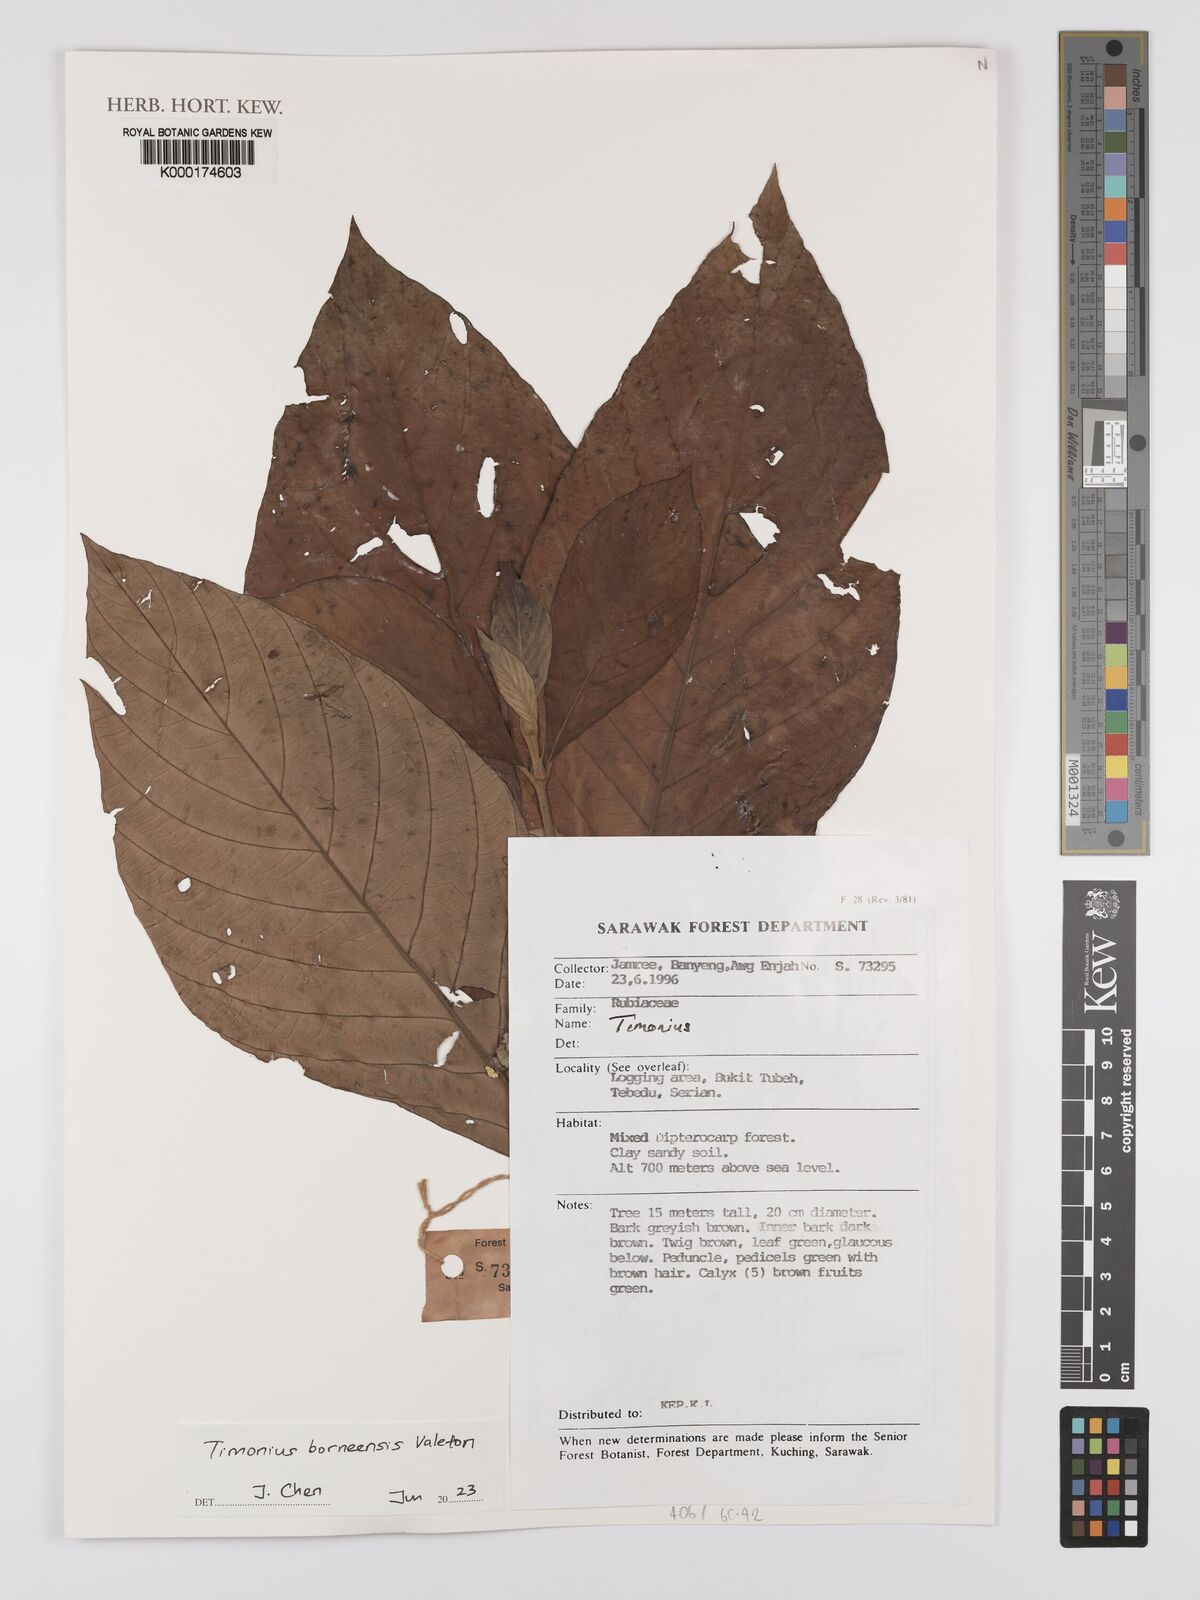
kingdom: Plantae
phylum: Tracheophyta
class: Magnoliopsida
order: Gentianales
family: Rubiaceae
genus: Timonius
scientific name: Timonius
